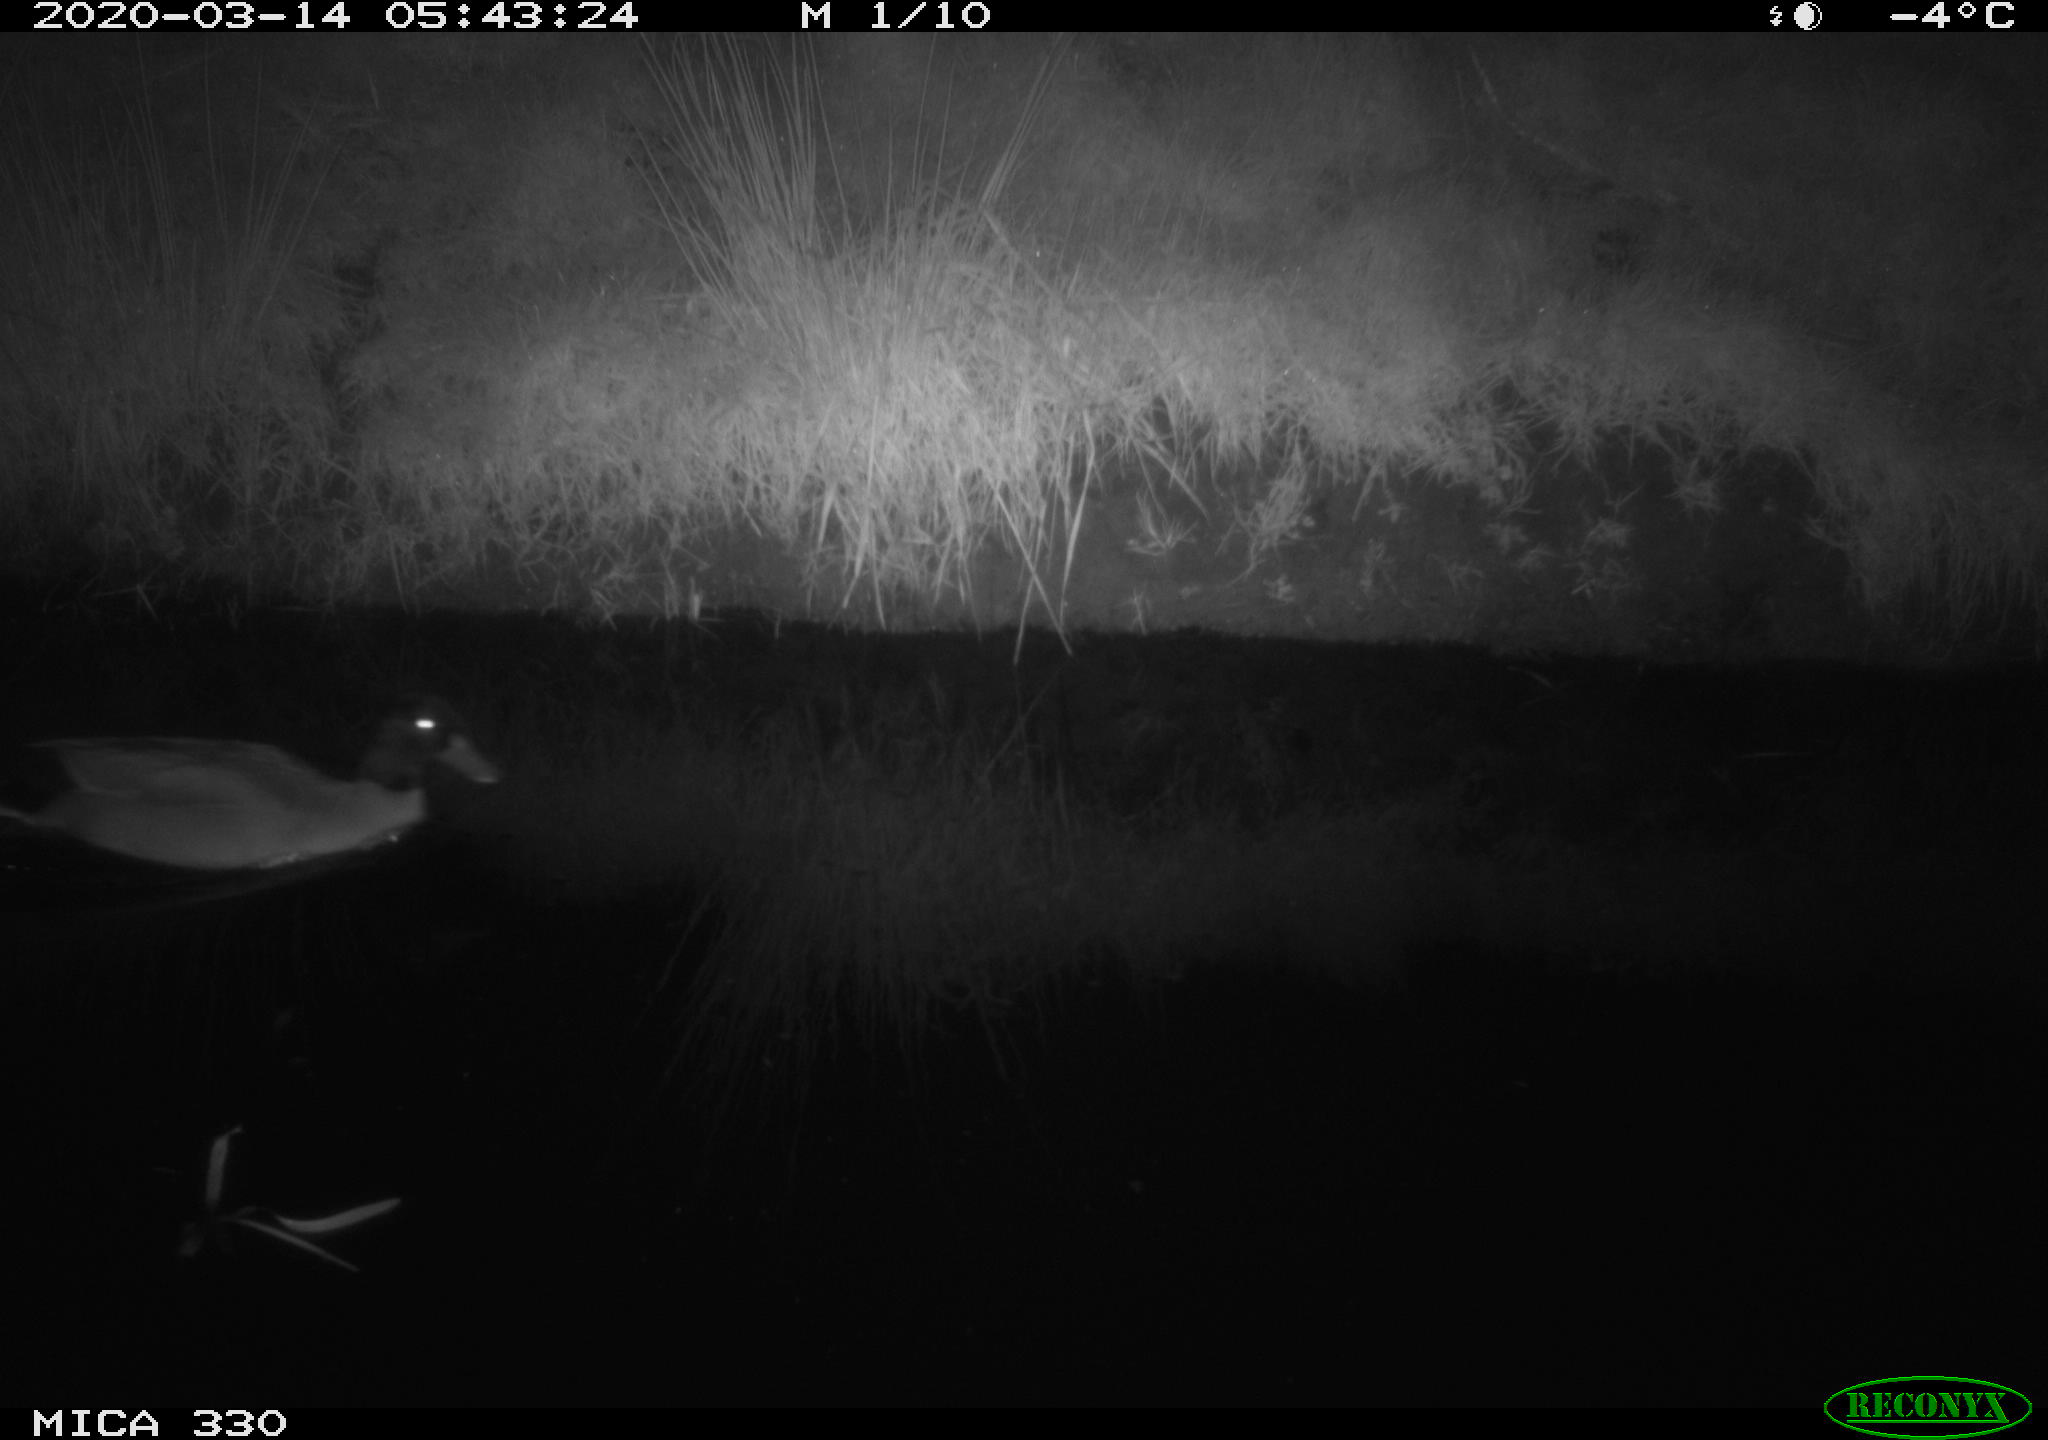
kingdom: Animalia
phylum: Chordata
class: Aves
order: Anseriformes
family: Anatidae
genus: Anas
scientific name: Anas platyrhynchos
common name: Mallard
